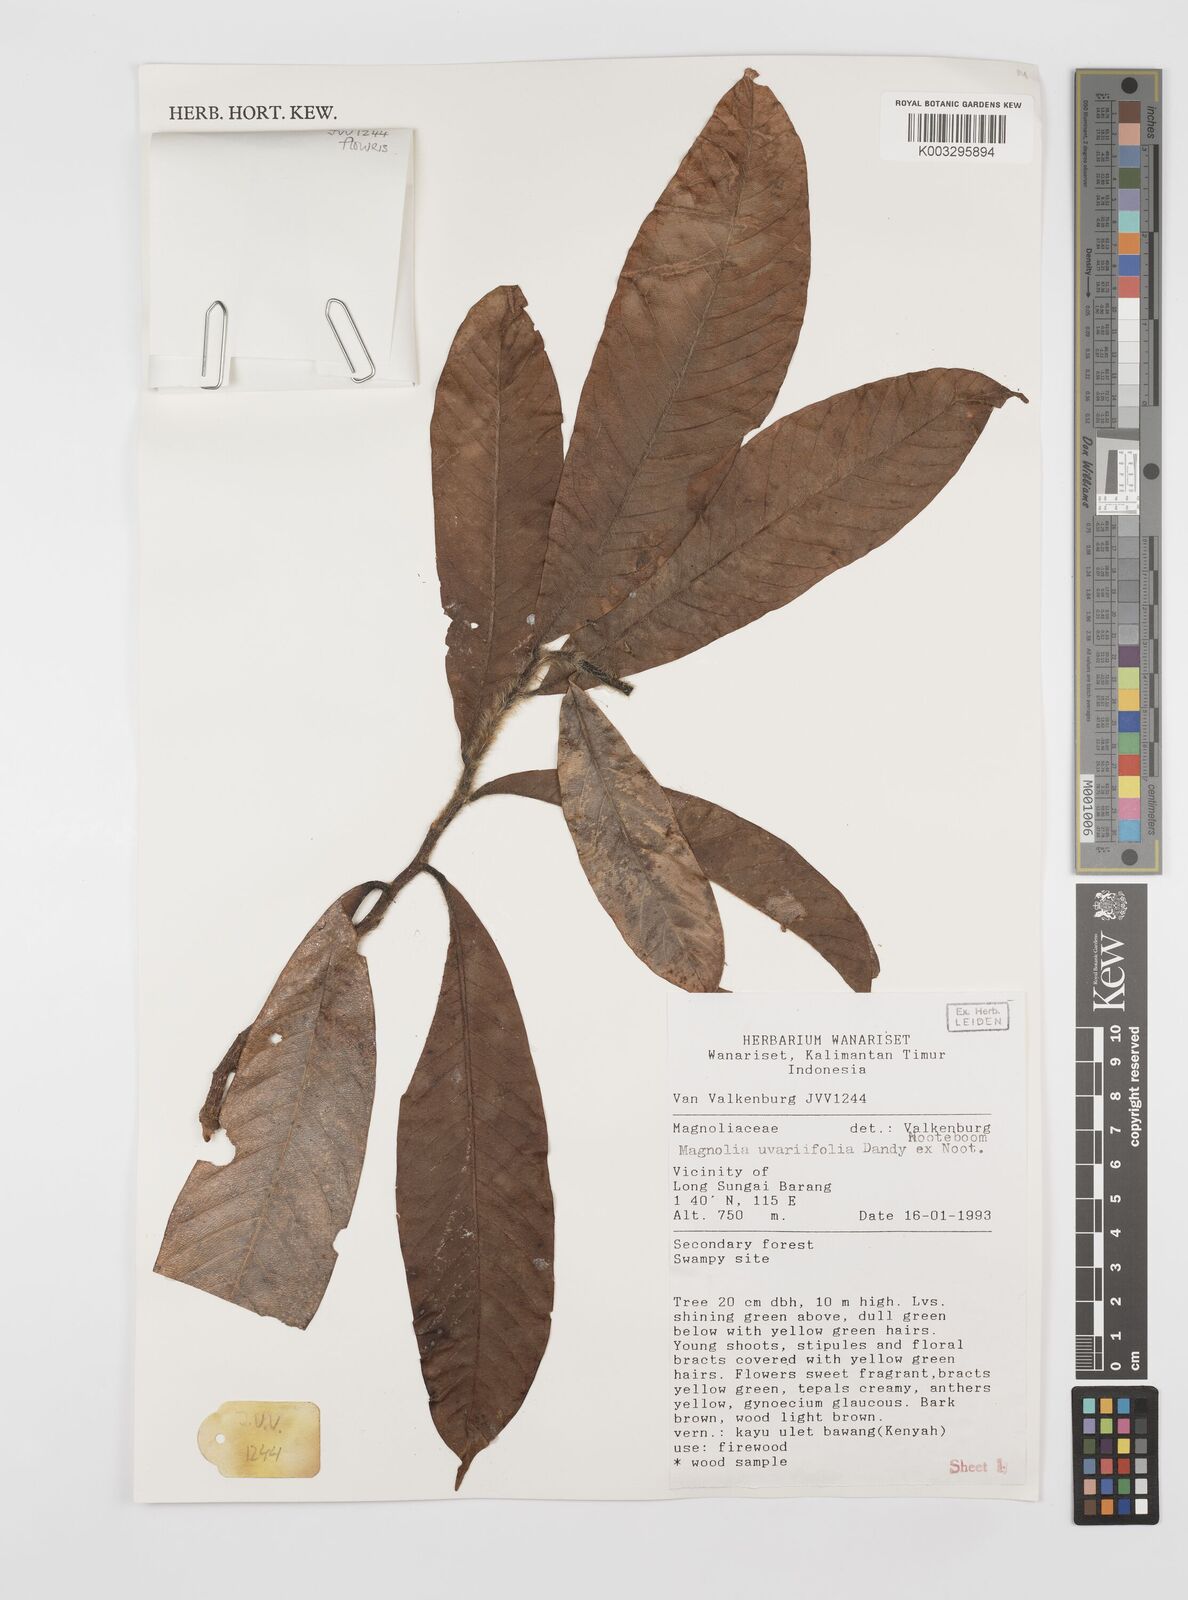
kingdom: Plantae
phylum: Tracheophyta
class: Magnoliopsida
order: Magnoliales
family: Magnoliaceae
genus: Magnolia
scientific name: Magnolia macklottii
